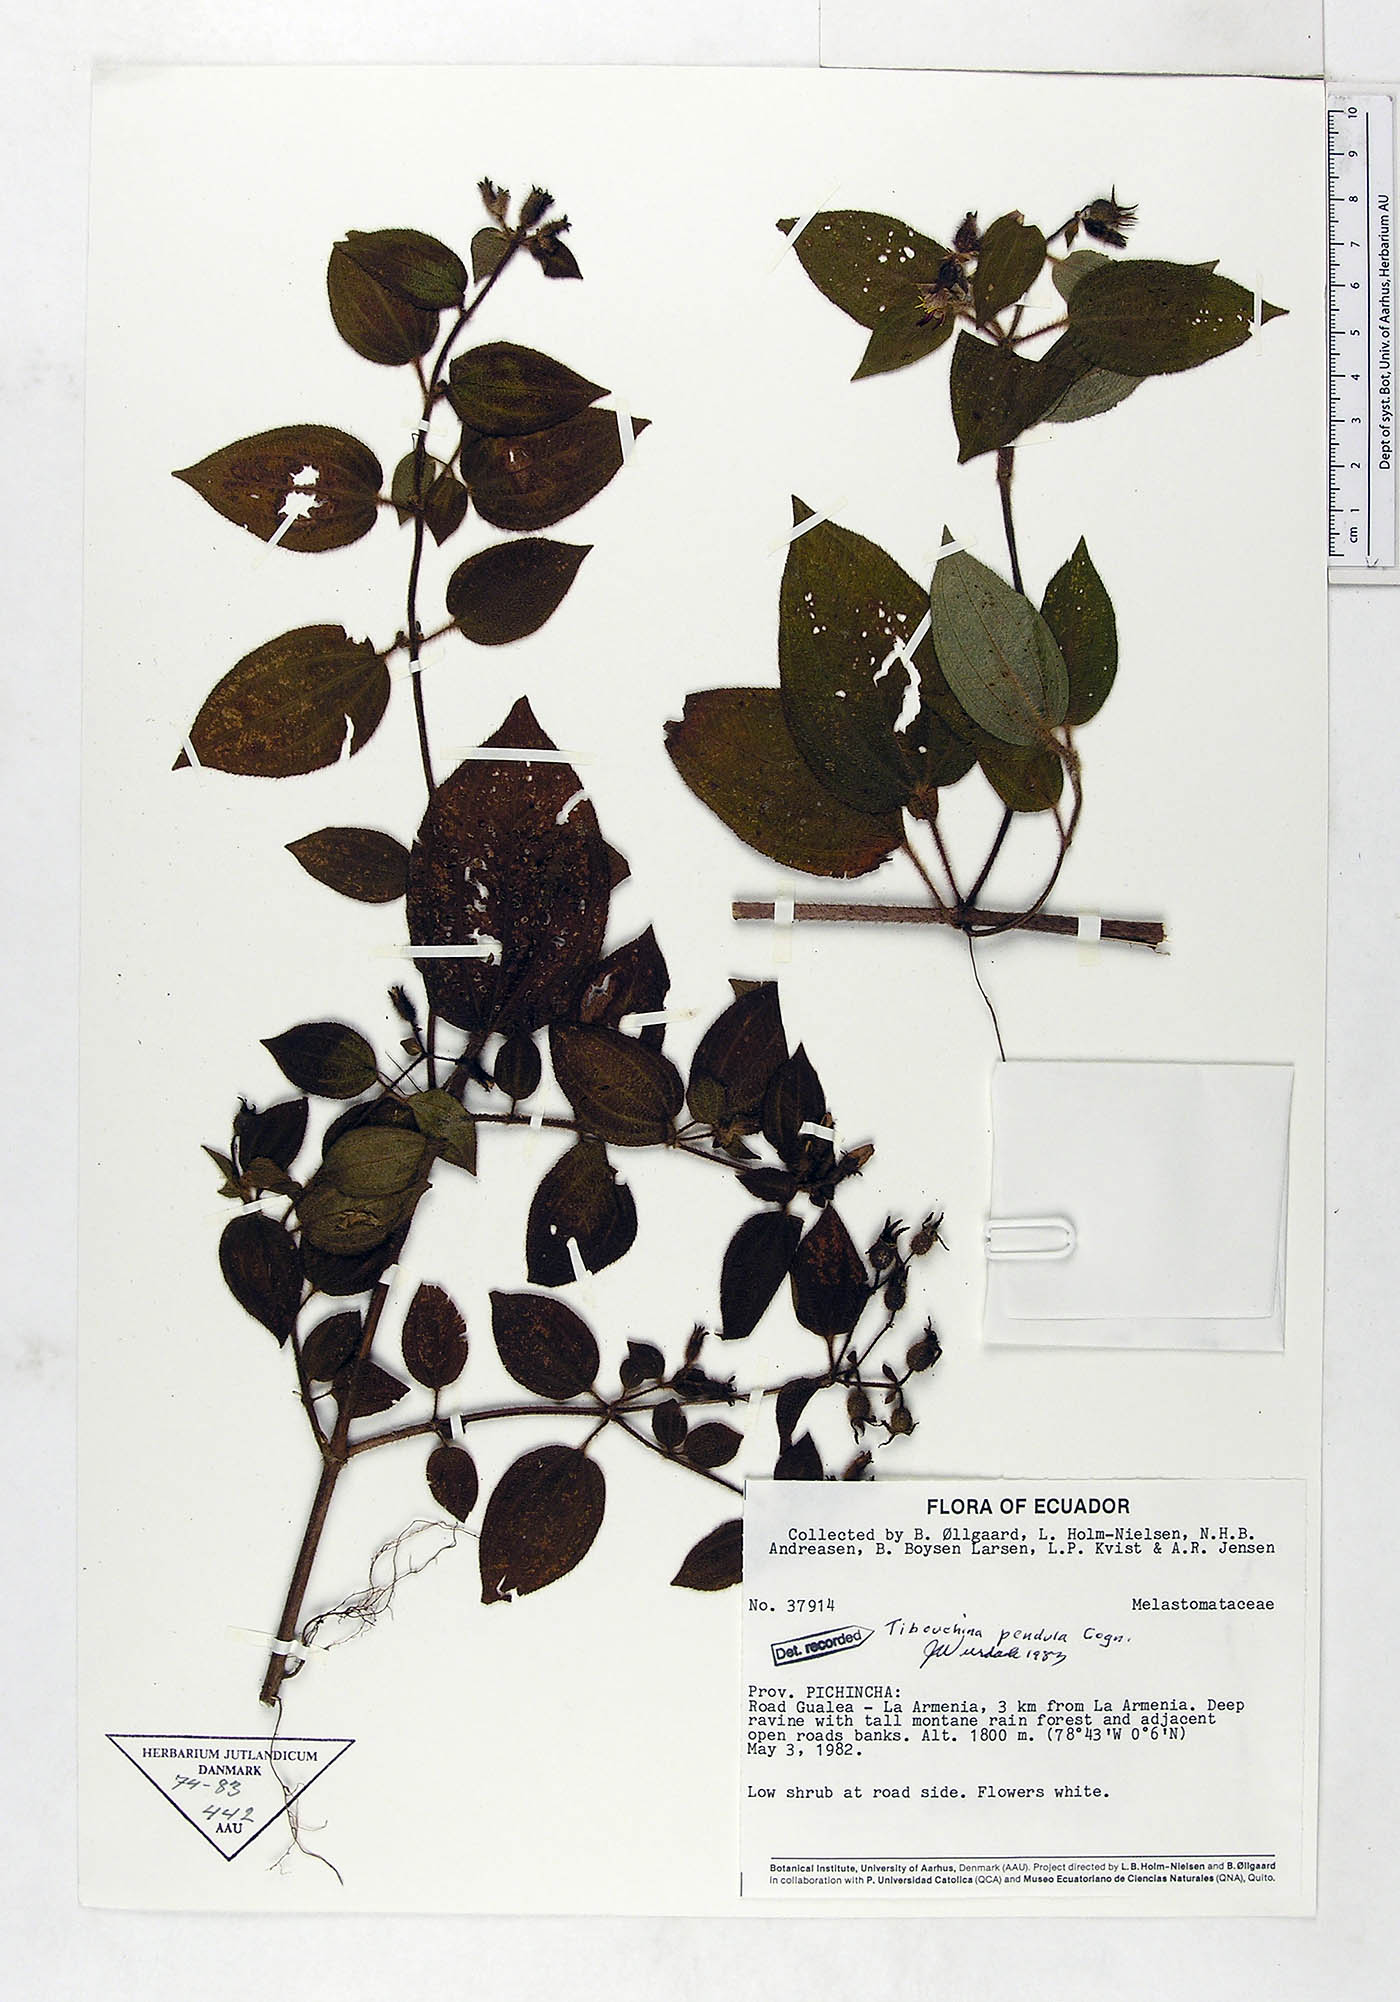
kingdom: Plantae
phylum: Tracheophyta
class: Magnoliopsida
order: Myrtales
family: Melastomataceae
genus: Chaetogastra
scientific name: Chaetogastra pendula
